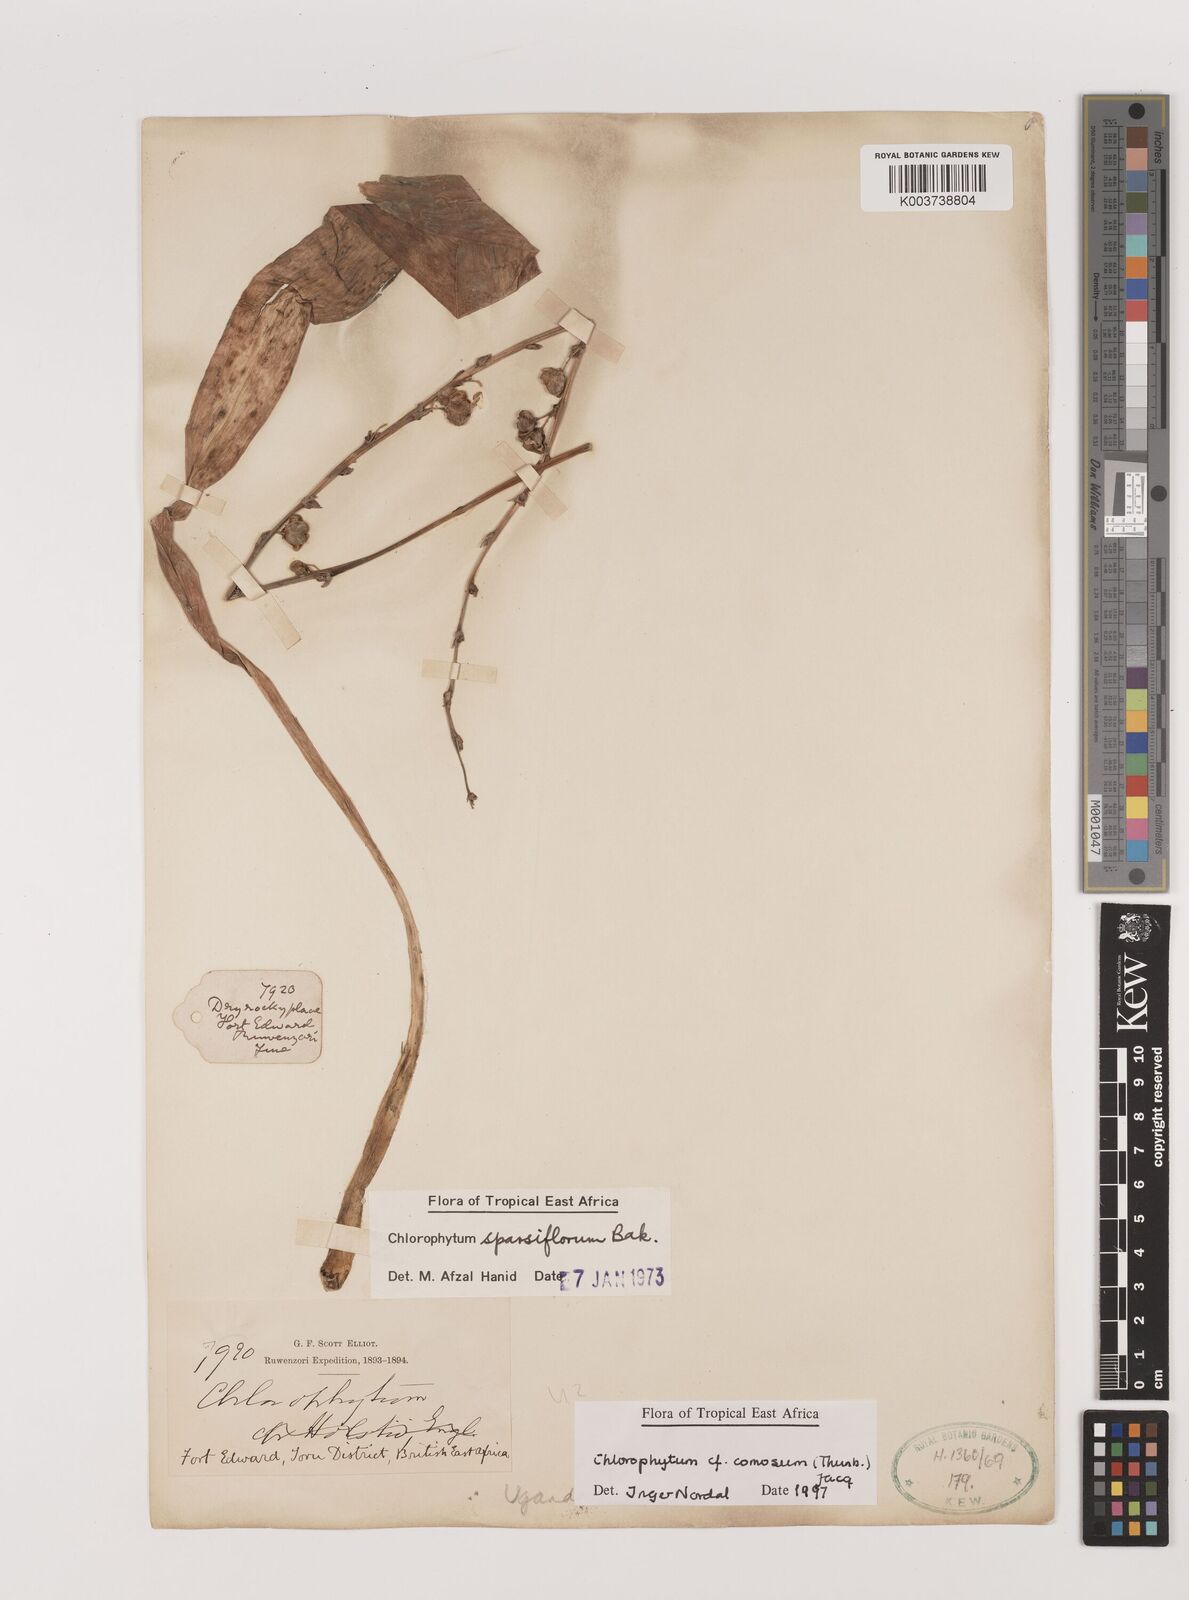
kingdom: Plantae
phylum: Tracheophyta
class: Liliopsida
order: Asparagales
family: Asparagaceae
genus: Chlorophytum
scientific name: Chlorophytum comosum
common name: Spider plant
